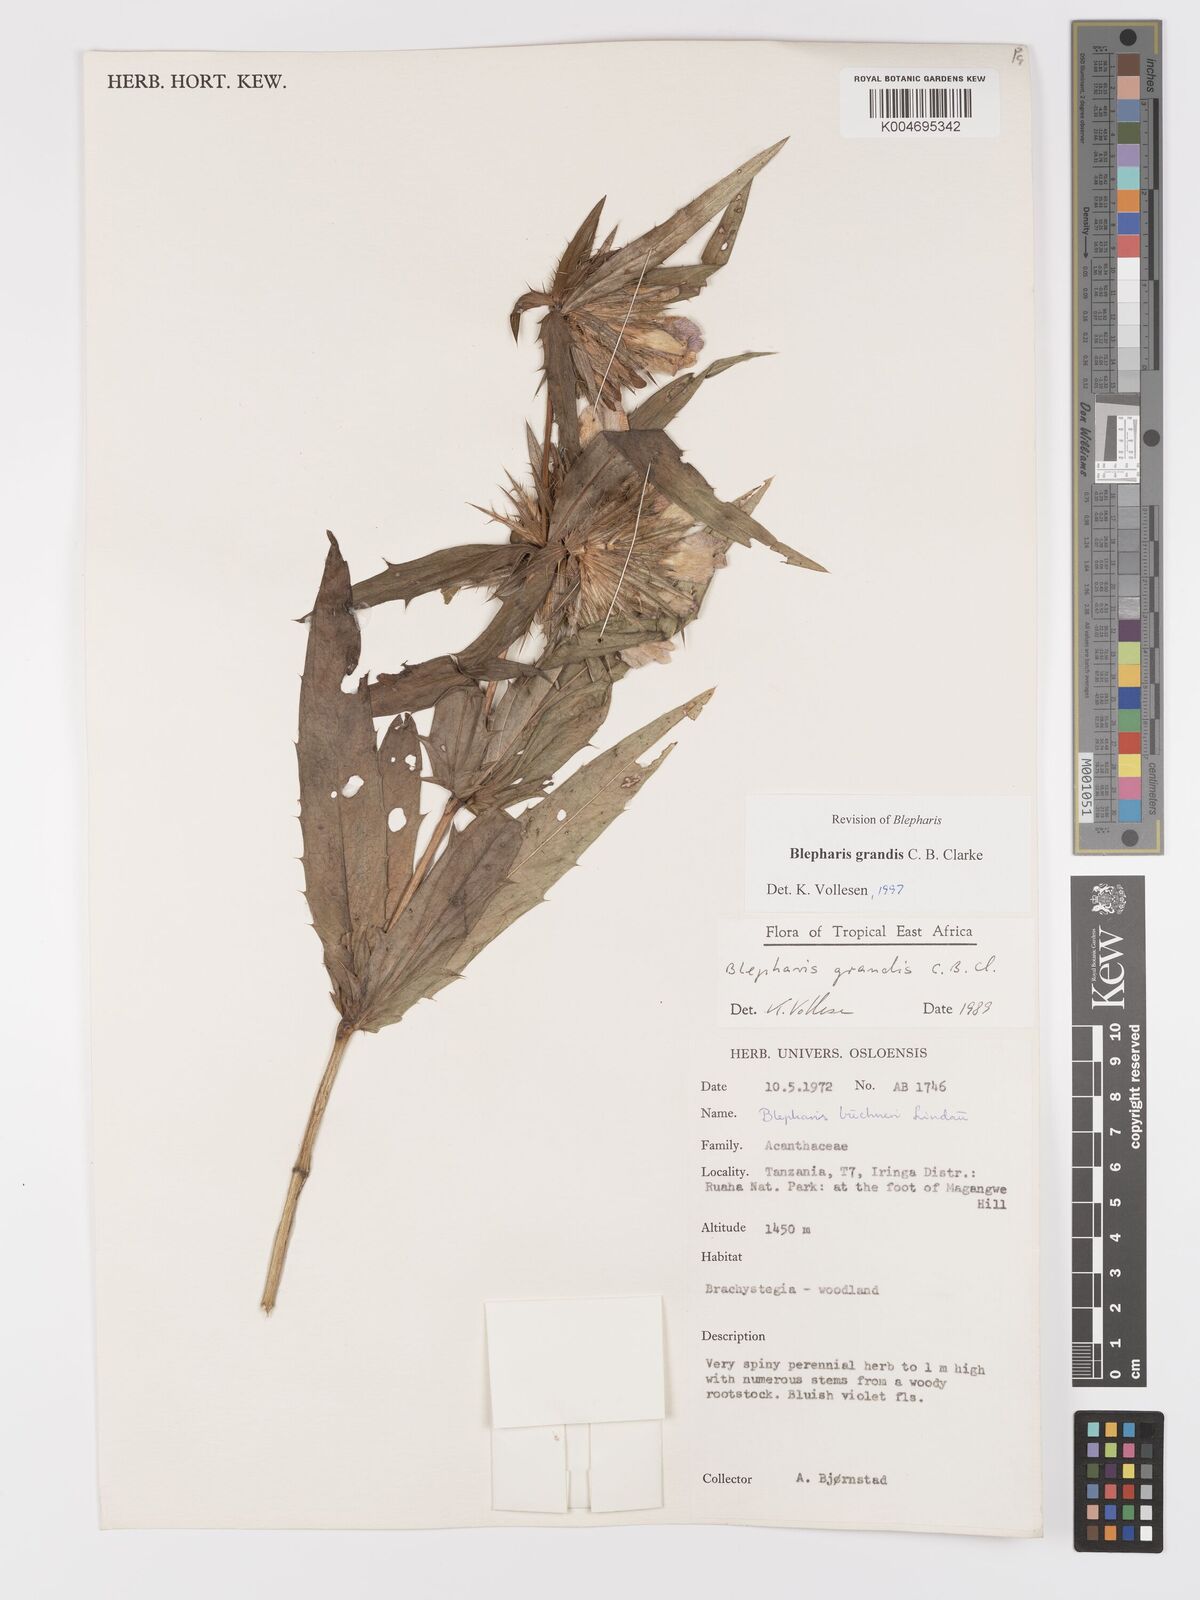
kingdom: Plantae
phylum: Tracheophyta
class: Magnoliopsida
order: Lamiales
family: Acanthaceae
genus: Blepharis
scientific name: Blepharis grandis
